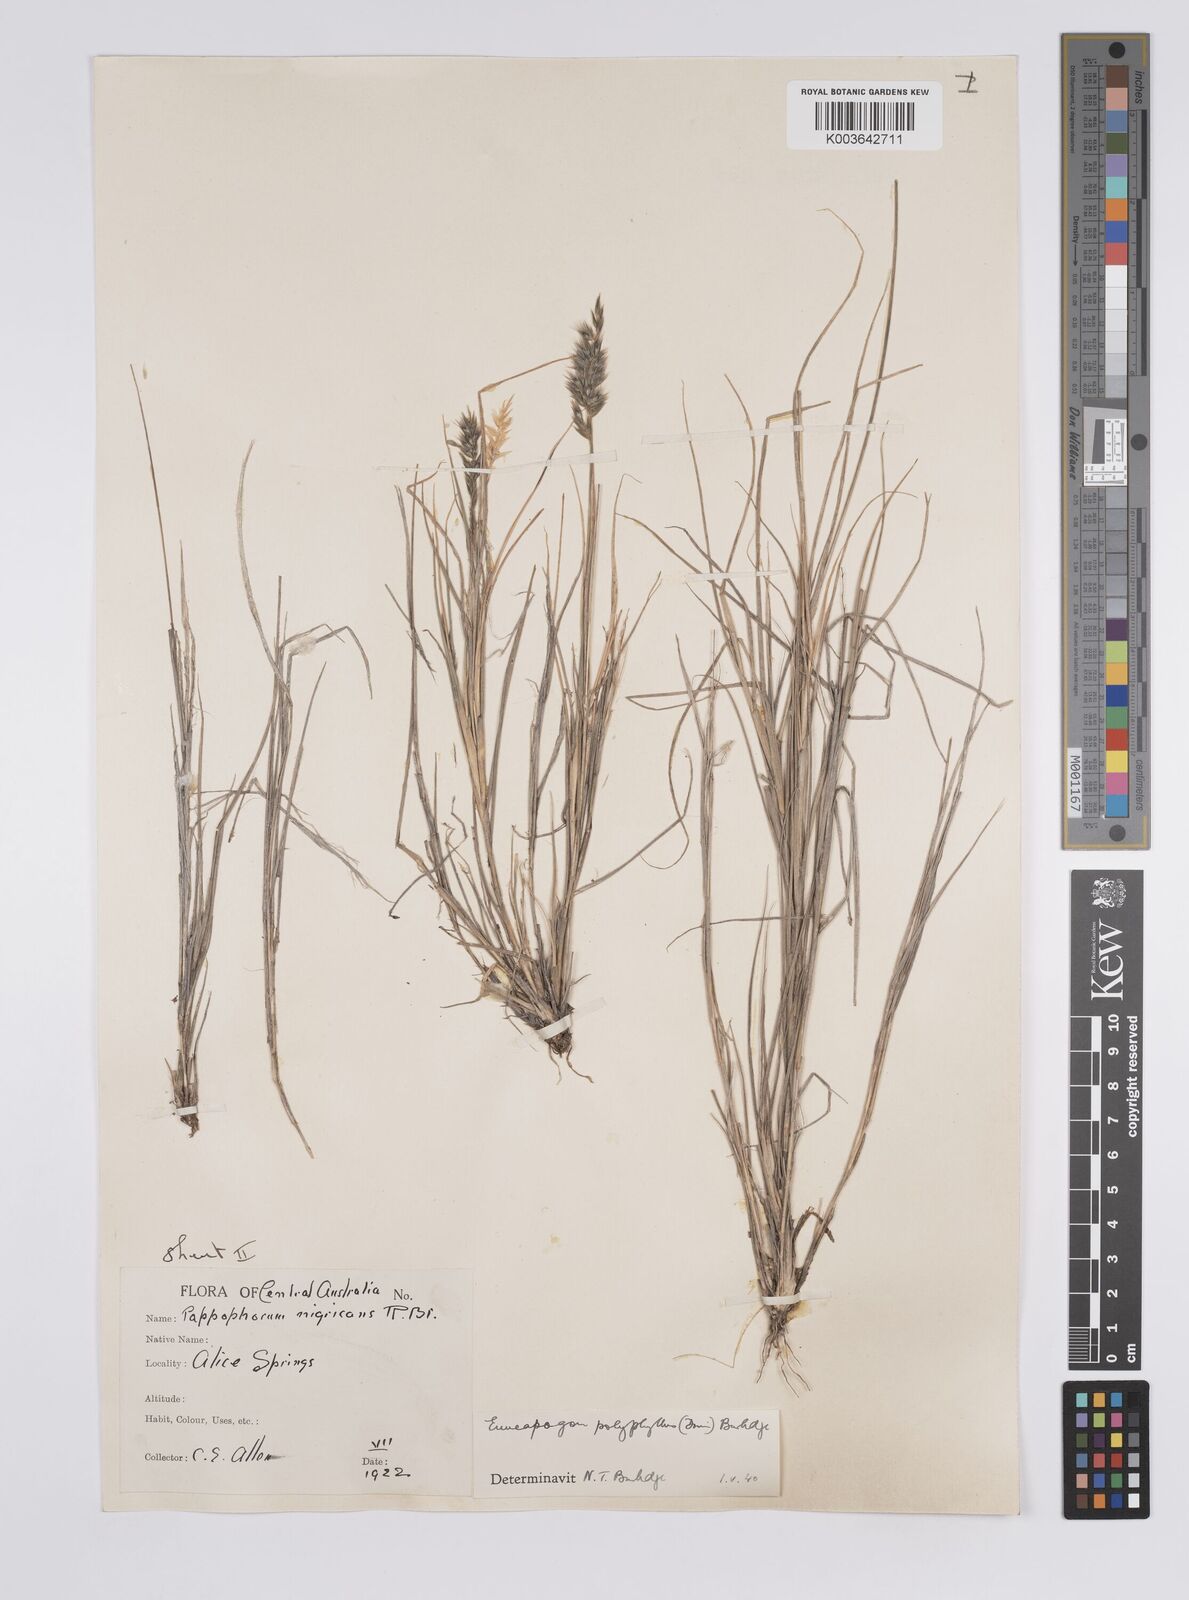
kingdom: Plantae
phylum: Tracheophyta
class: Liliopsida
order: Poales
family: Poaceae
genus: Enneapogon
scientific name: Enneapogon polyphyllus
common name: Leafy nineawn
